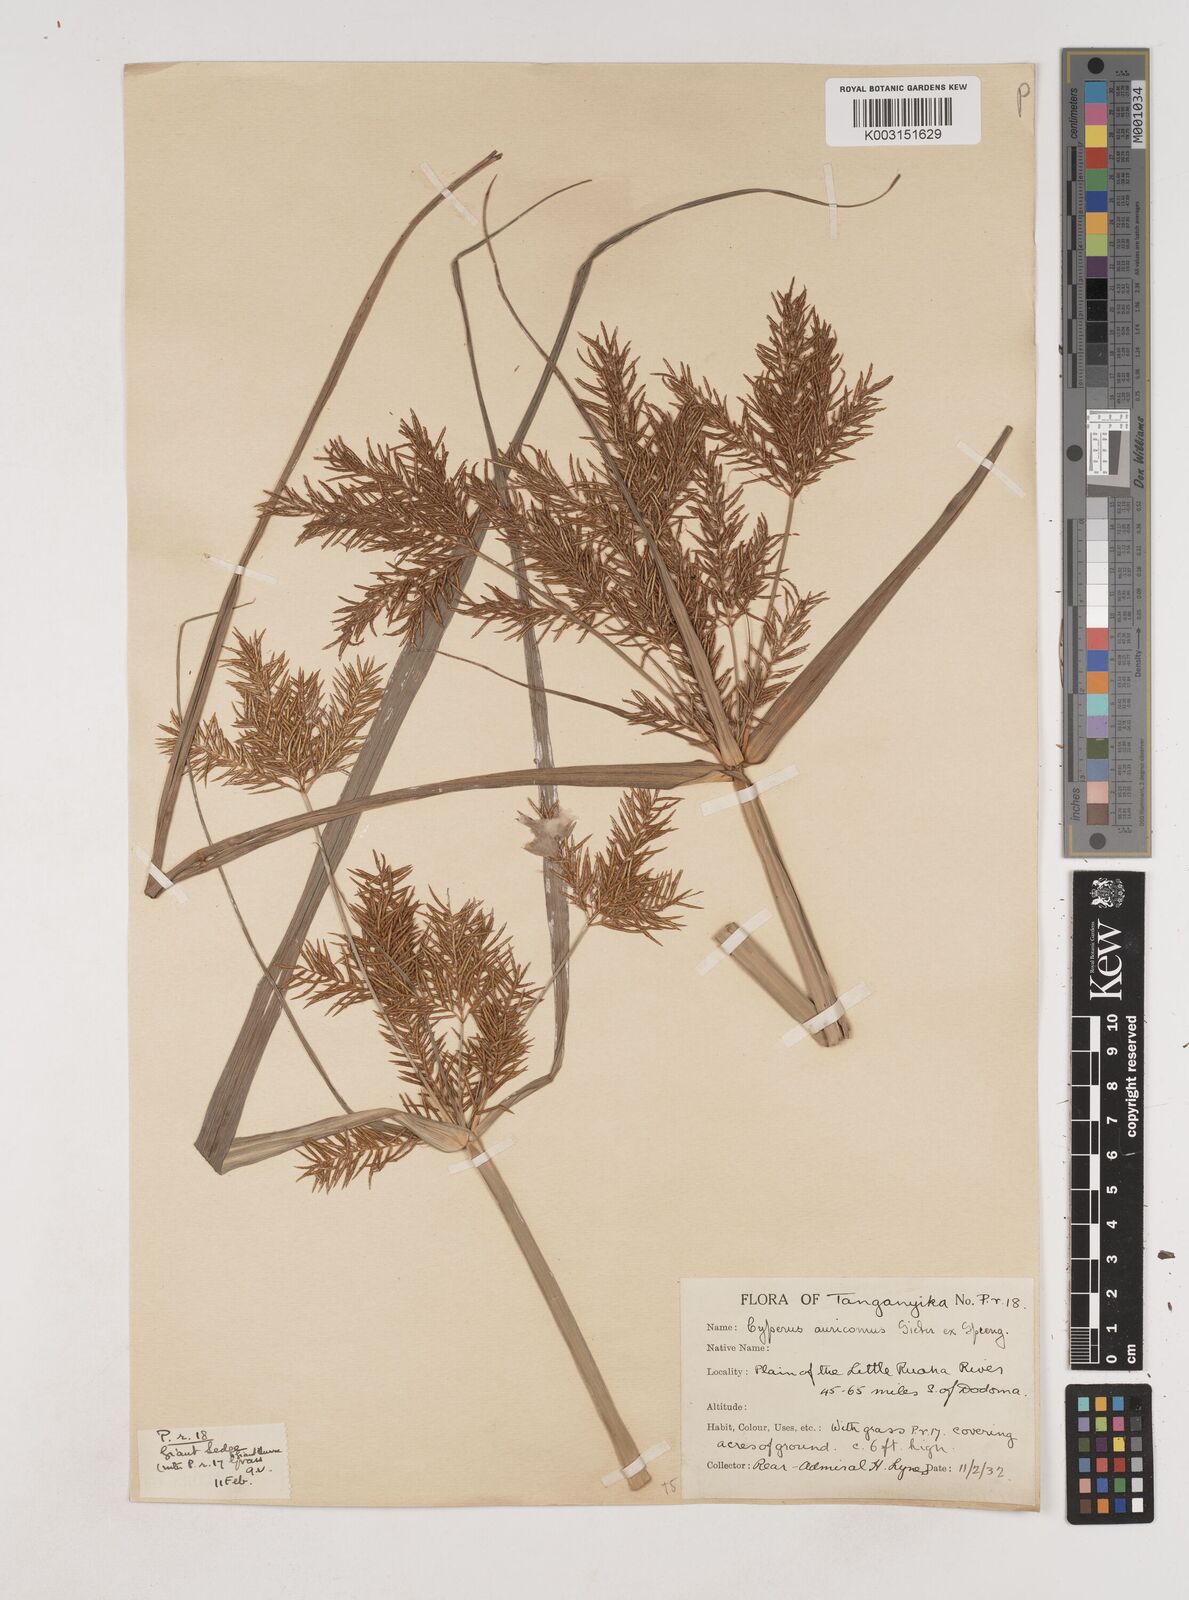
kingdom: Plantae
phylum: Tracheophyta
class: Liliopsida
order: Poales
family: Cyperaceae
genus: Cyperus
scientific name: Cyperus digitatus
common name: Finger flatsedge
